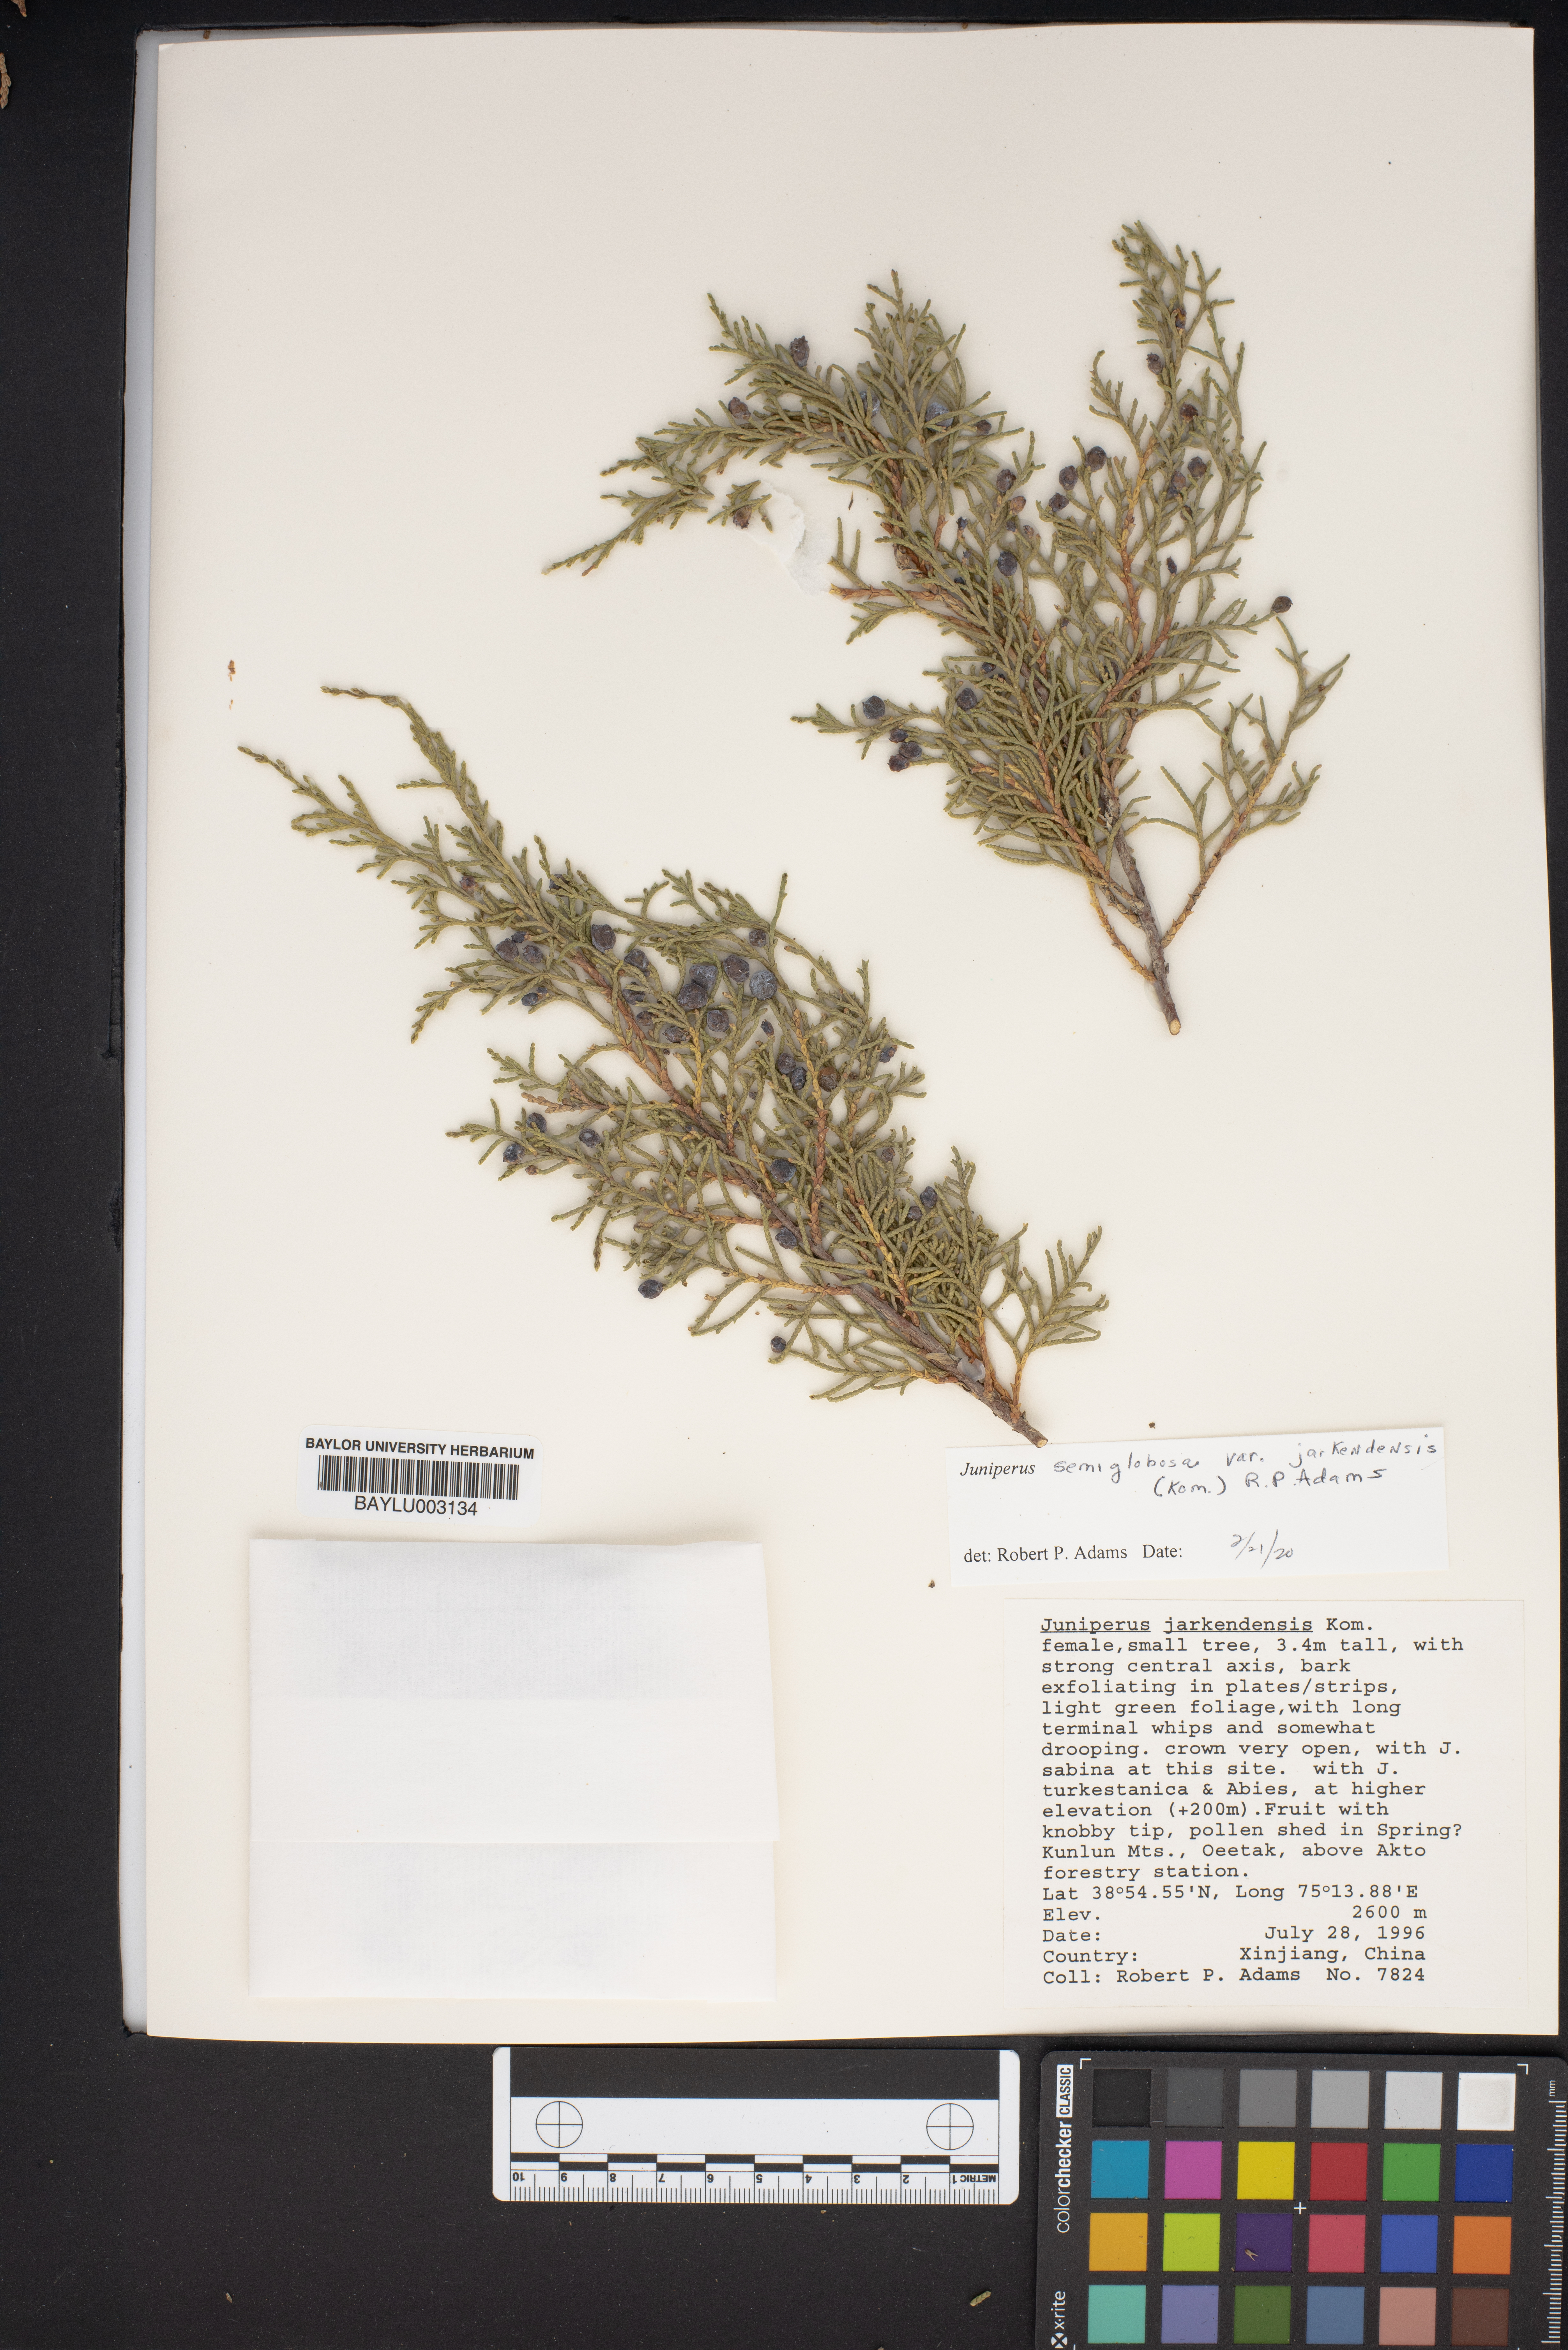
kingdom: Plantae
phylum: Tracheophyta
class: Pinopsida
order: Pinales
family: Cupressaceae
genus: Juniperus
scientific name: Juniperus semiglobosa
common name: Pencil cedar
